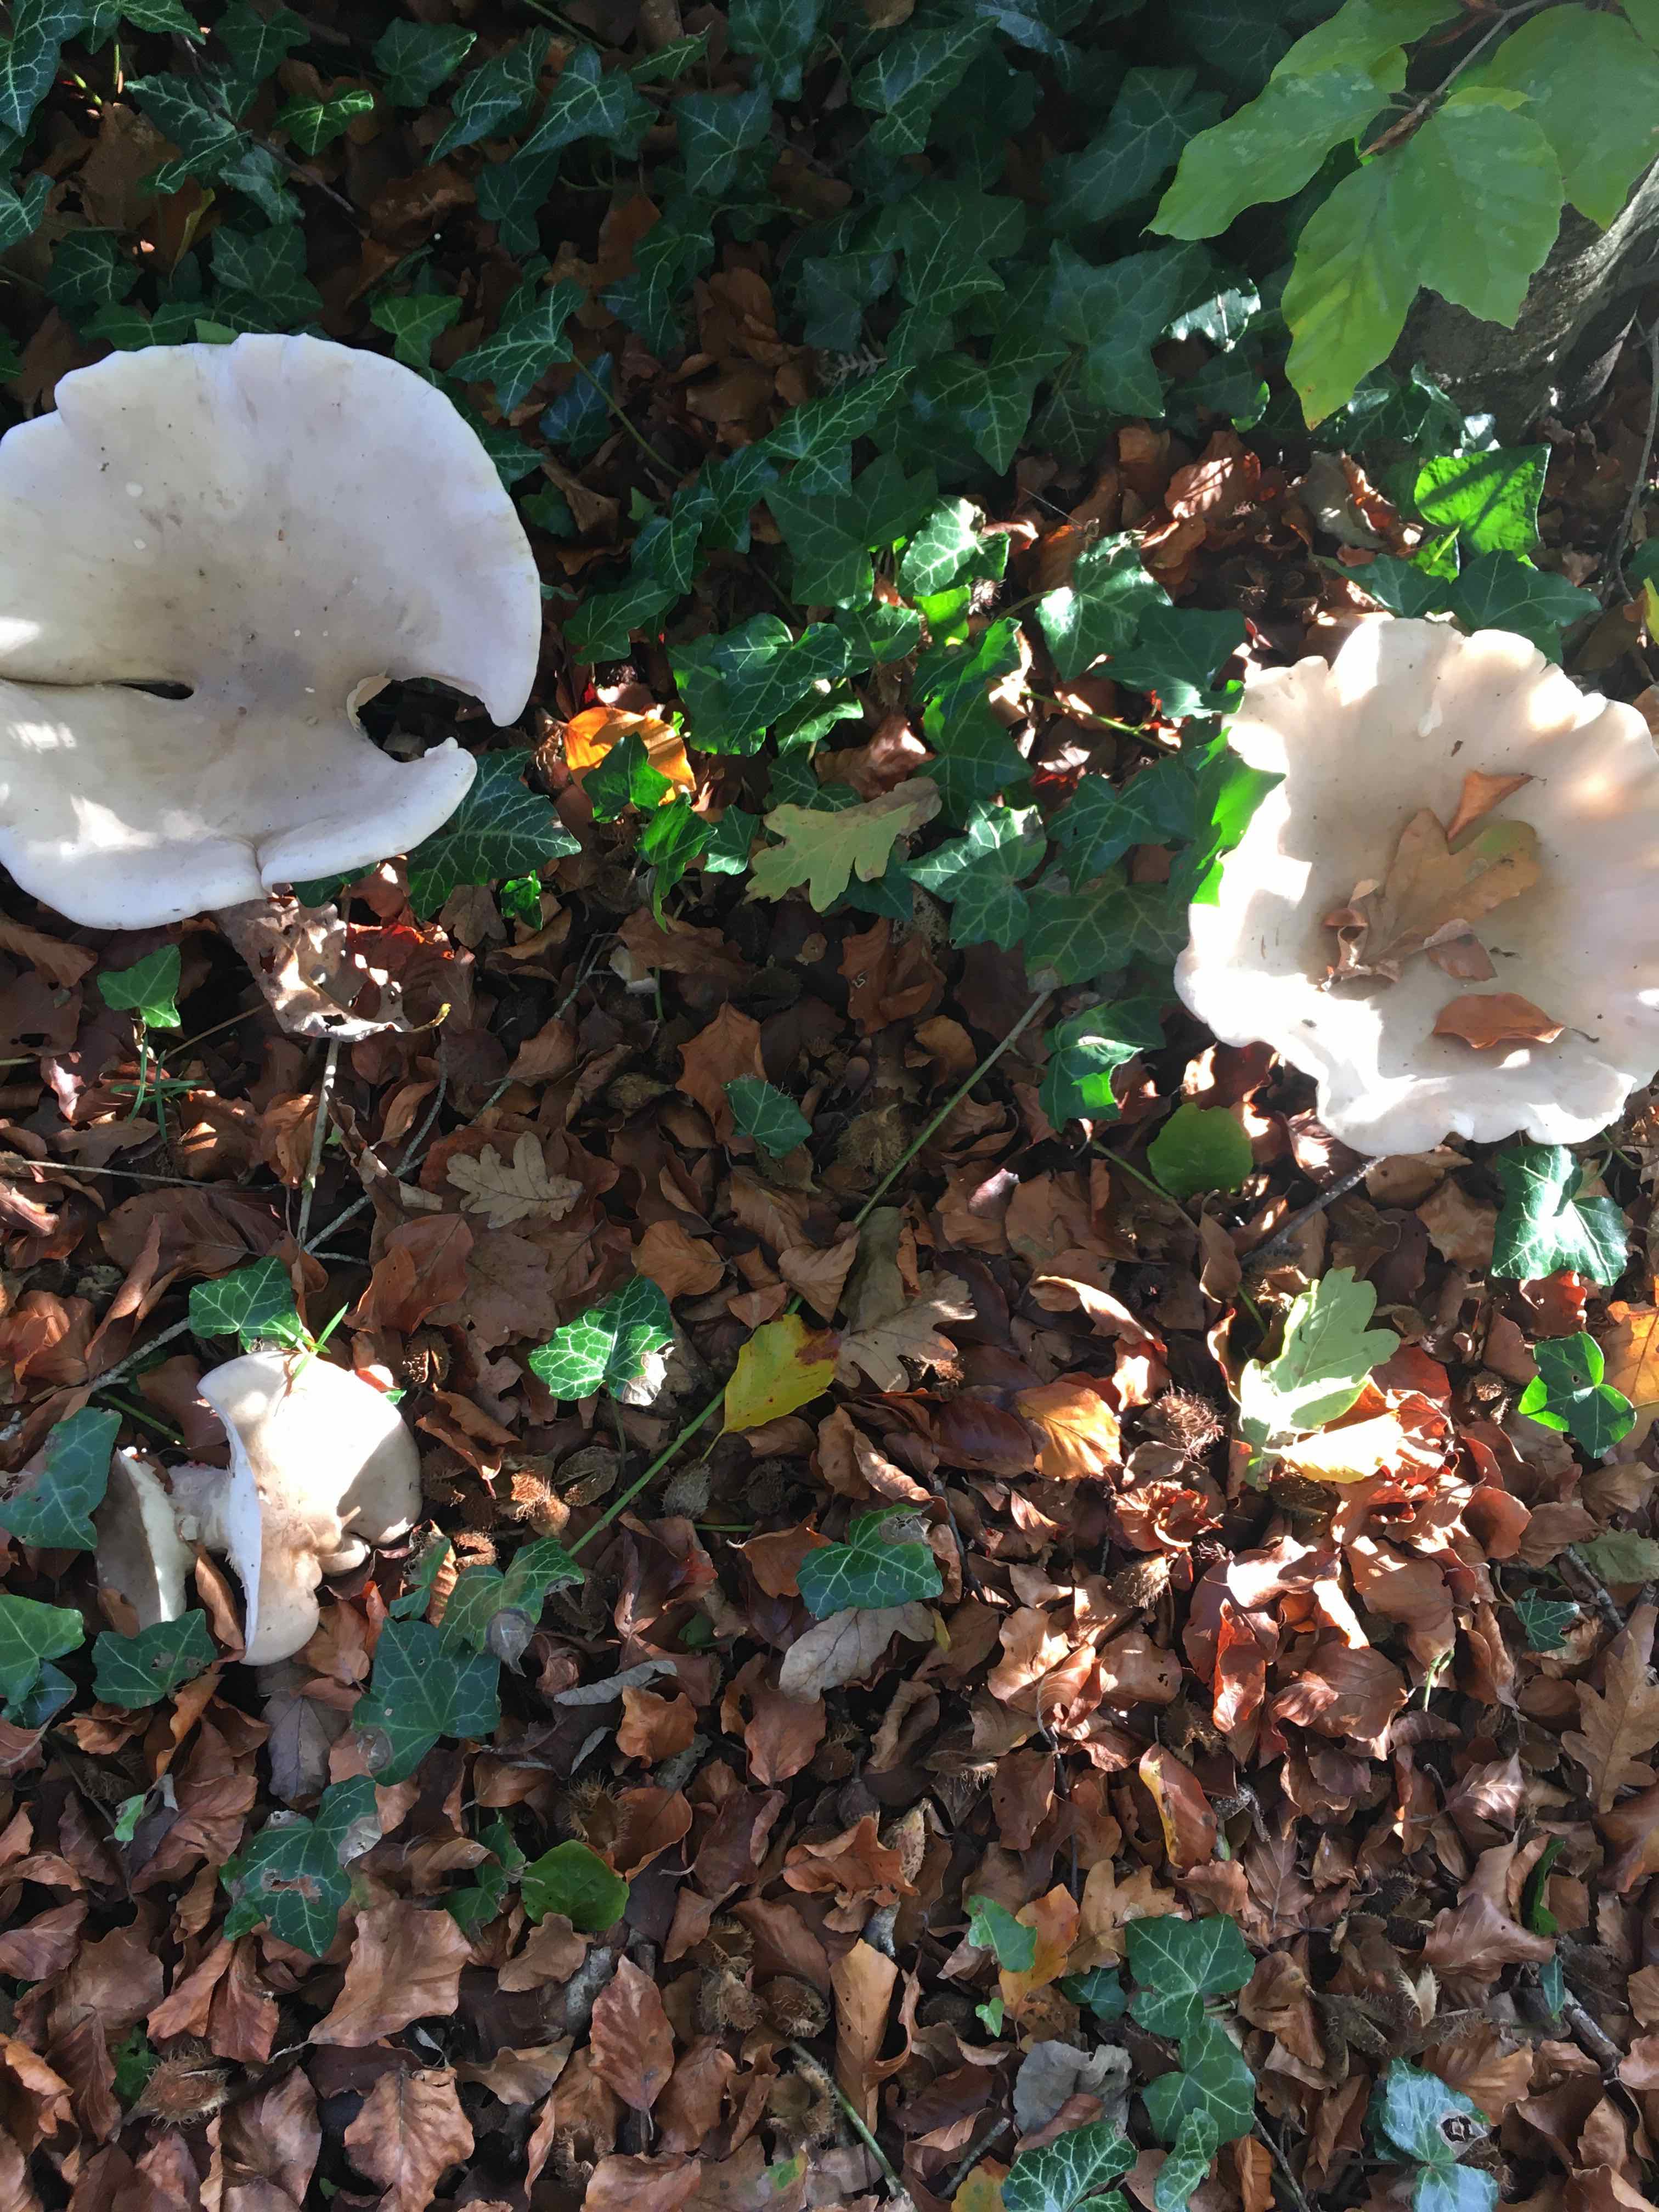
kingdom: Fungi
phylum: Basidiomycota
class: Agaricomycetes
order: Agaricales
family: Tricholomataceae
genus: Clitocybe
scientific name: Clitocybe nebularis
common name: tåge-tragthat
